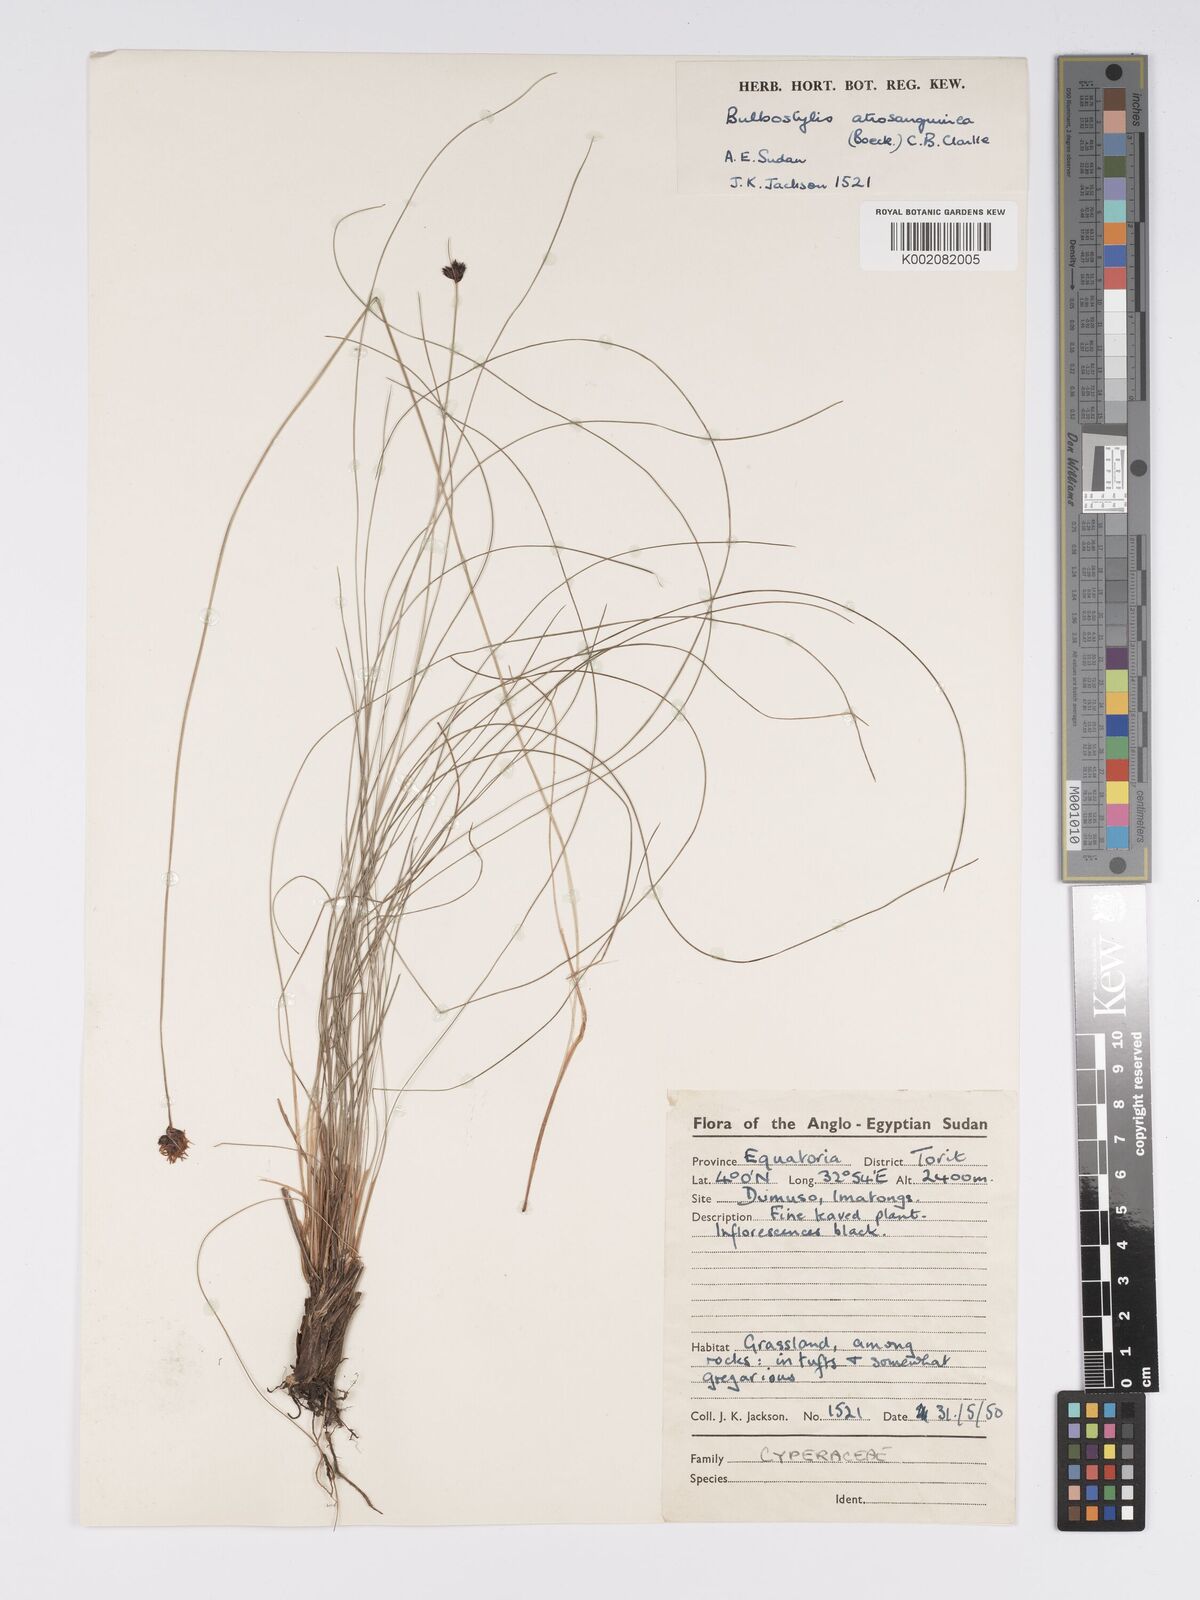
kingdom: Plantae
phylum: Tracheophyta
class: Liliopsida
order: Poales
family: Cyperaceae
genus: Bulbostylis
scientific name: Bulbostylis atrosanguinea
